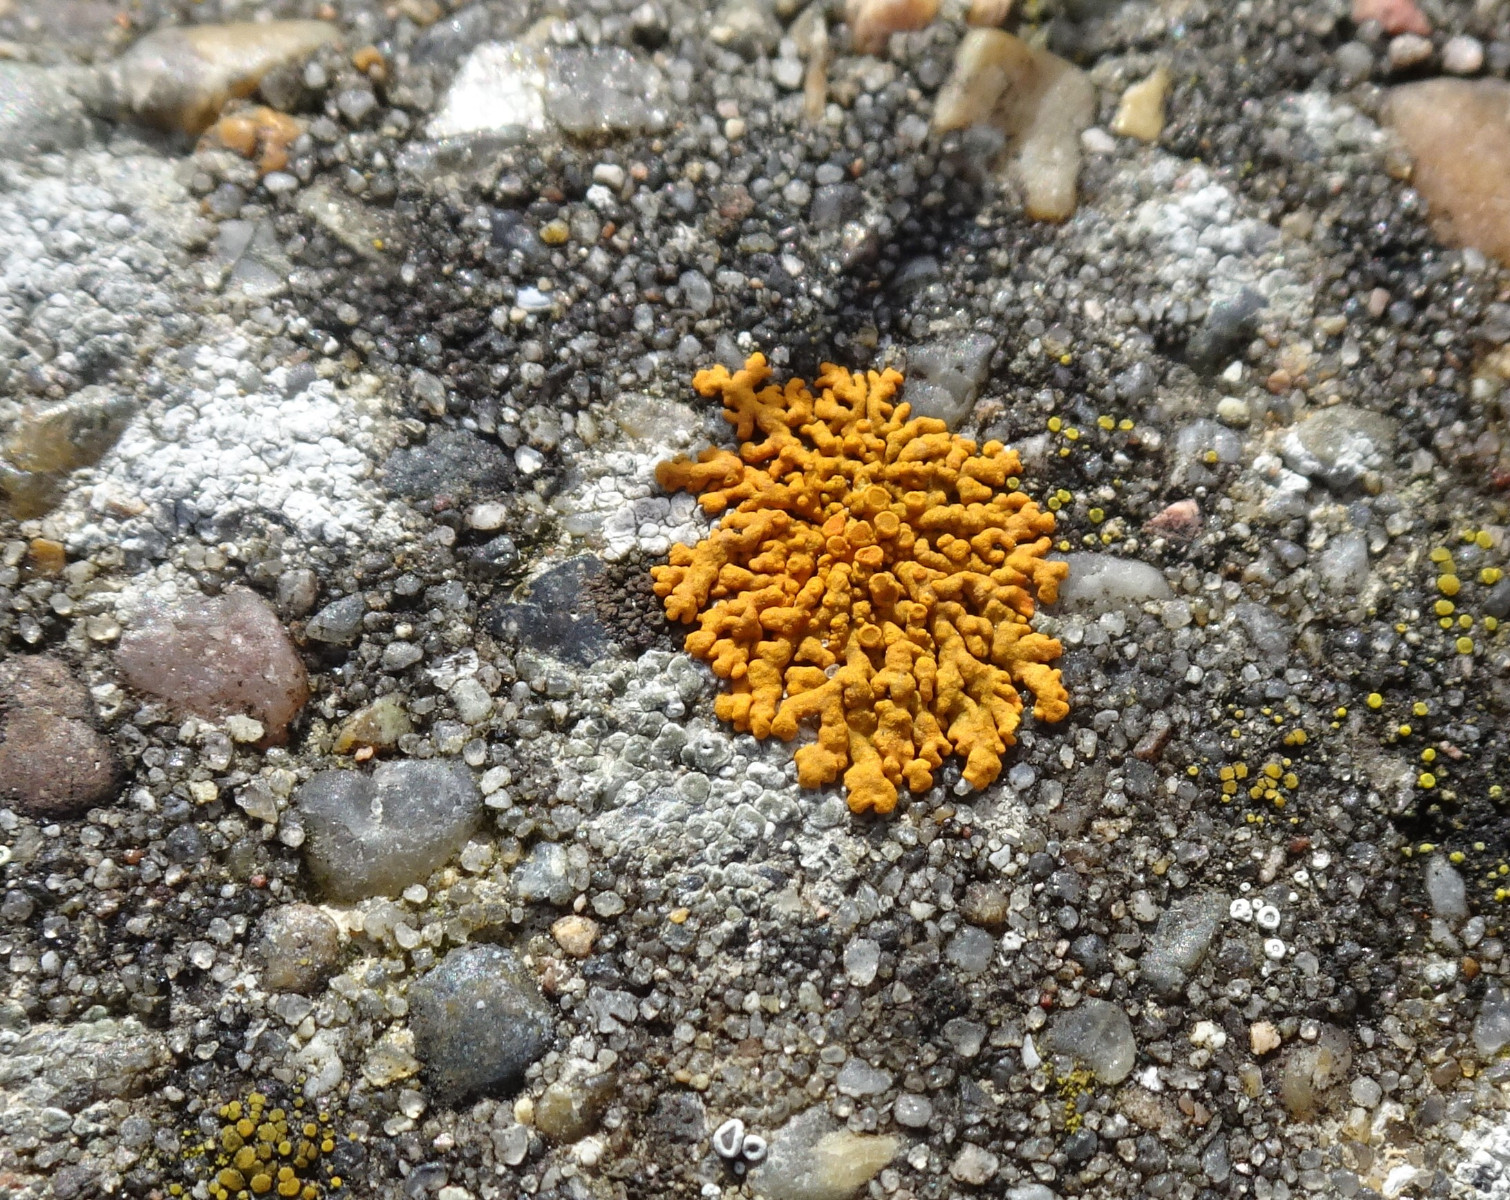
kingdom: Fungi
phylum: Ascomycota
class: Lecanoromycetes
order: Teloschistales
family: Teloschistaceae
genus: Xanthoria
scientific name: Xanthoria elegans
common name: fjeld-væggelav
